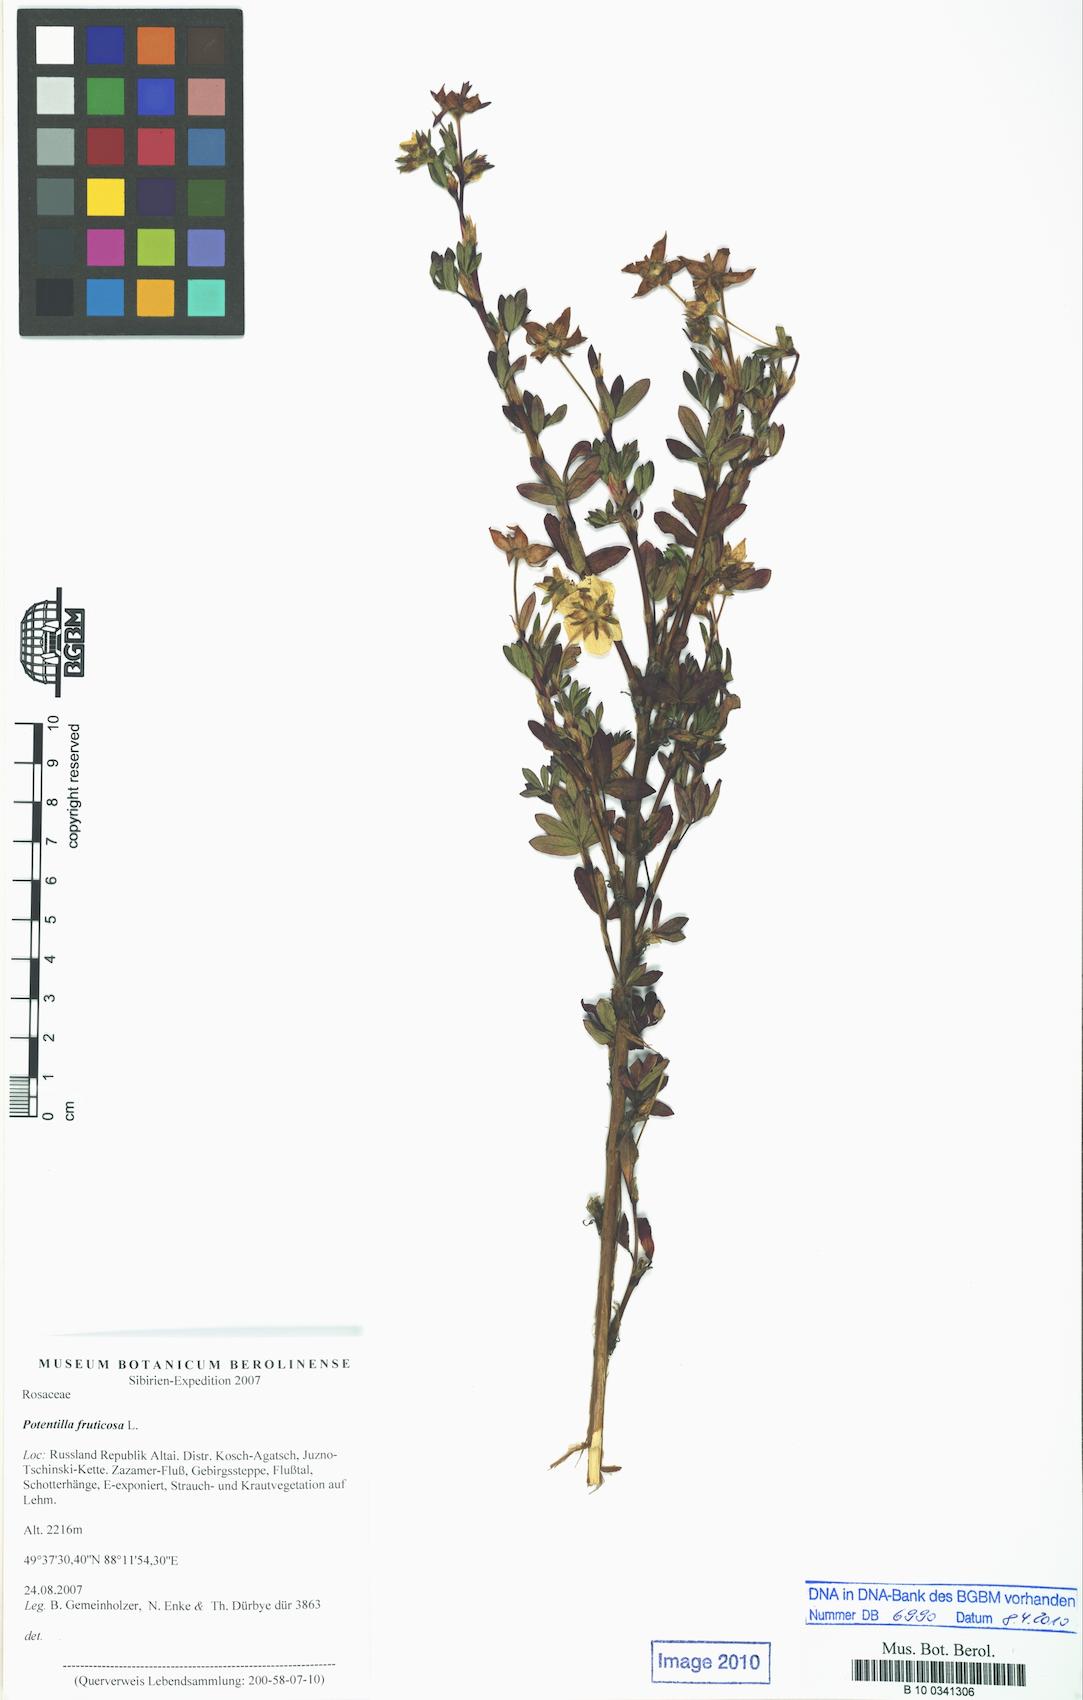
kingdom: Plantae
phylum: Tracheophyta
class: Magnoliopsida
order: Rosales
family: Rosaceae
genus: Dasiphora
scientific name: Dasiphora fruticosa
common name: Shrubby cinquefoil
